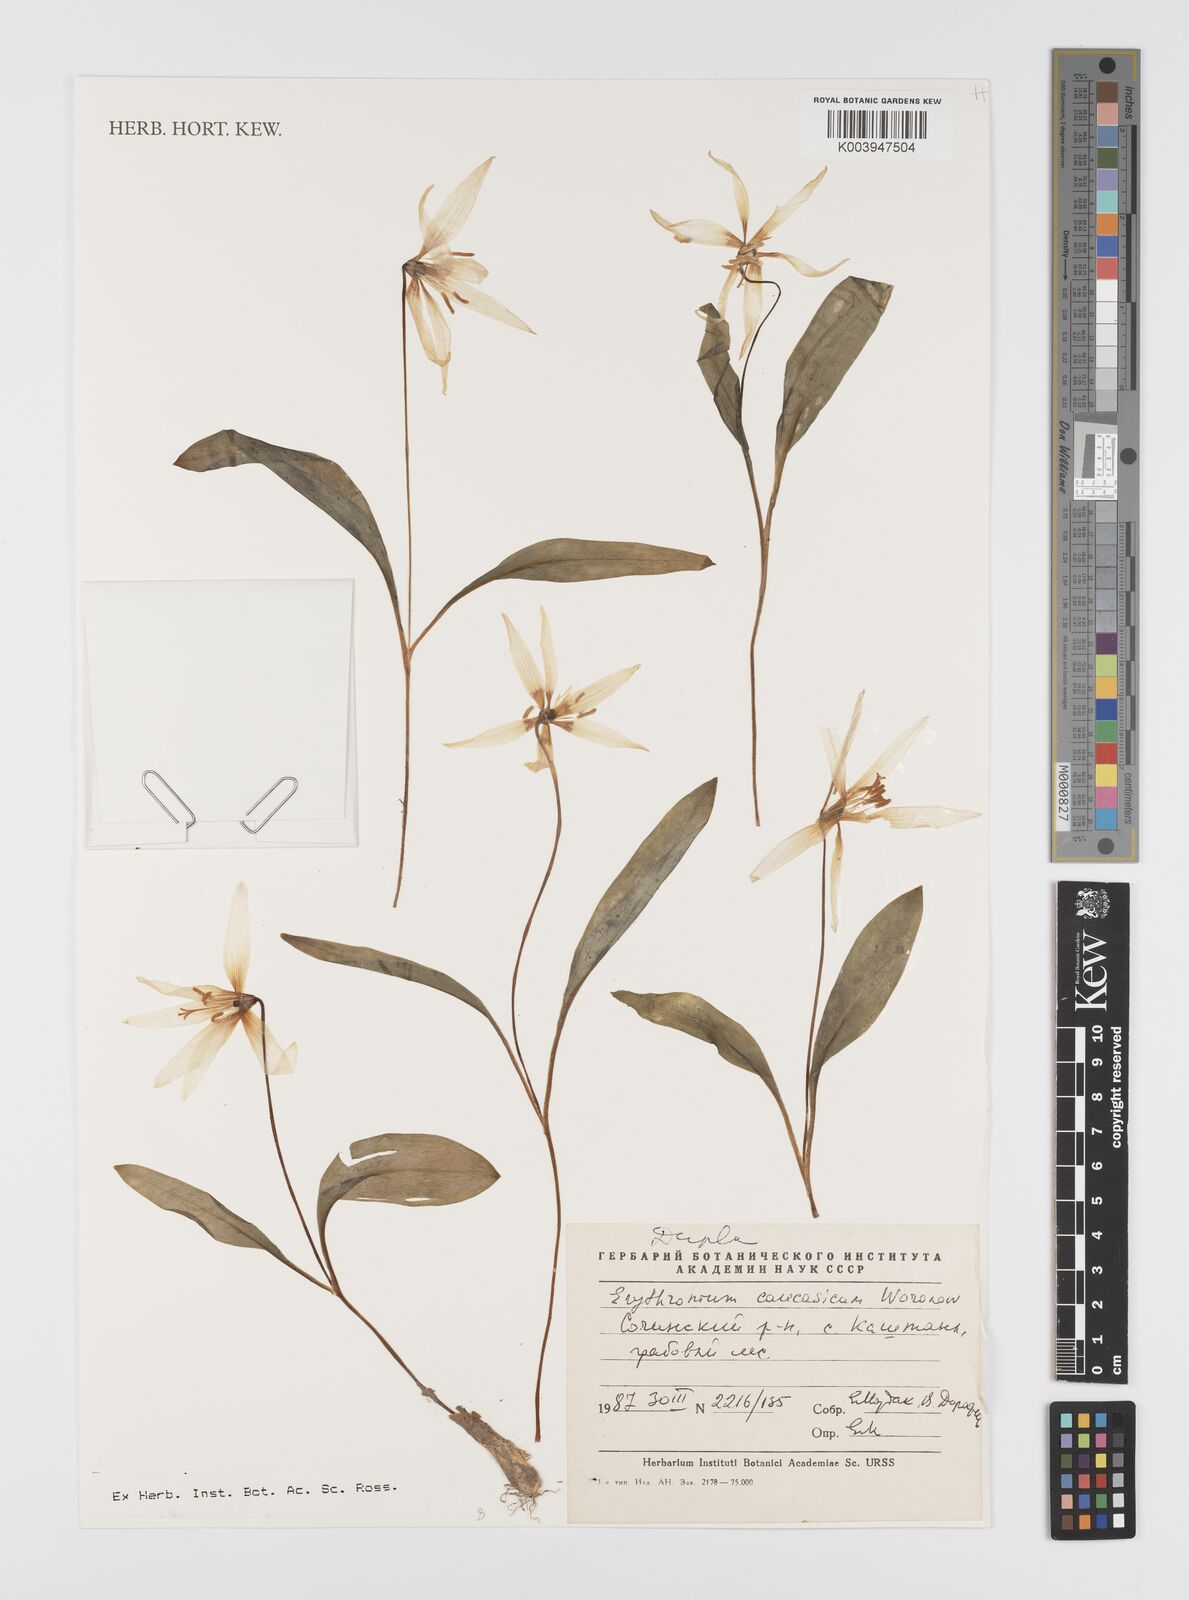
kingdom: Plantae
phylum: Tracheophyta
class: Liliopsida
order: Liliales
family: Liliaceae
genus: Erythronium
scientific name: Erythronium caucasicum
